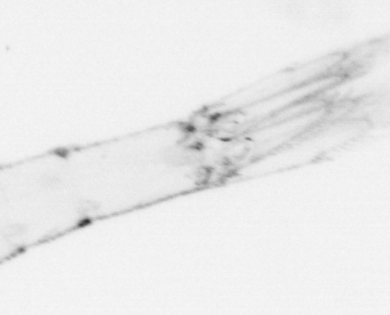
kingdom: Animalia
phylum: Chordata
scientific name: Chordata
